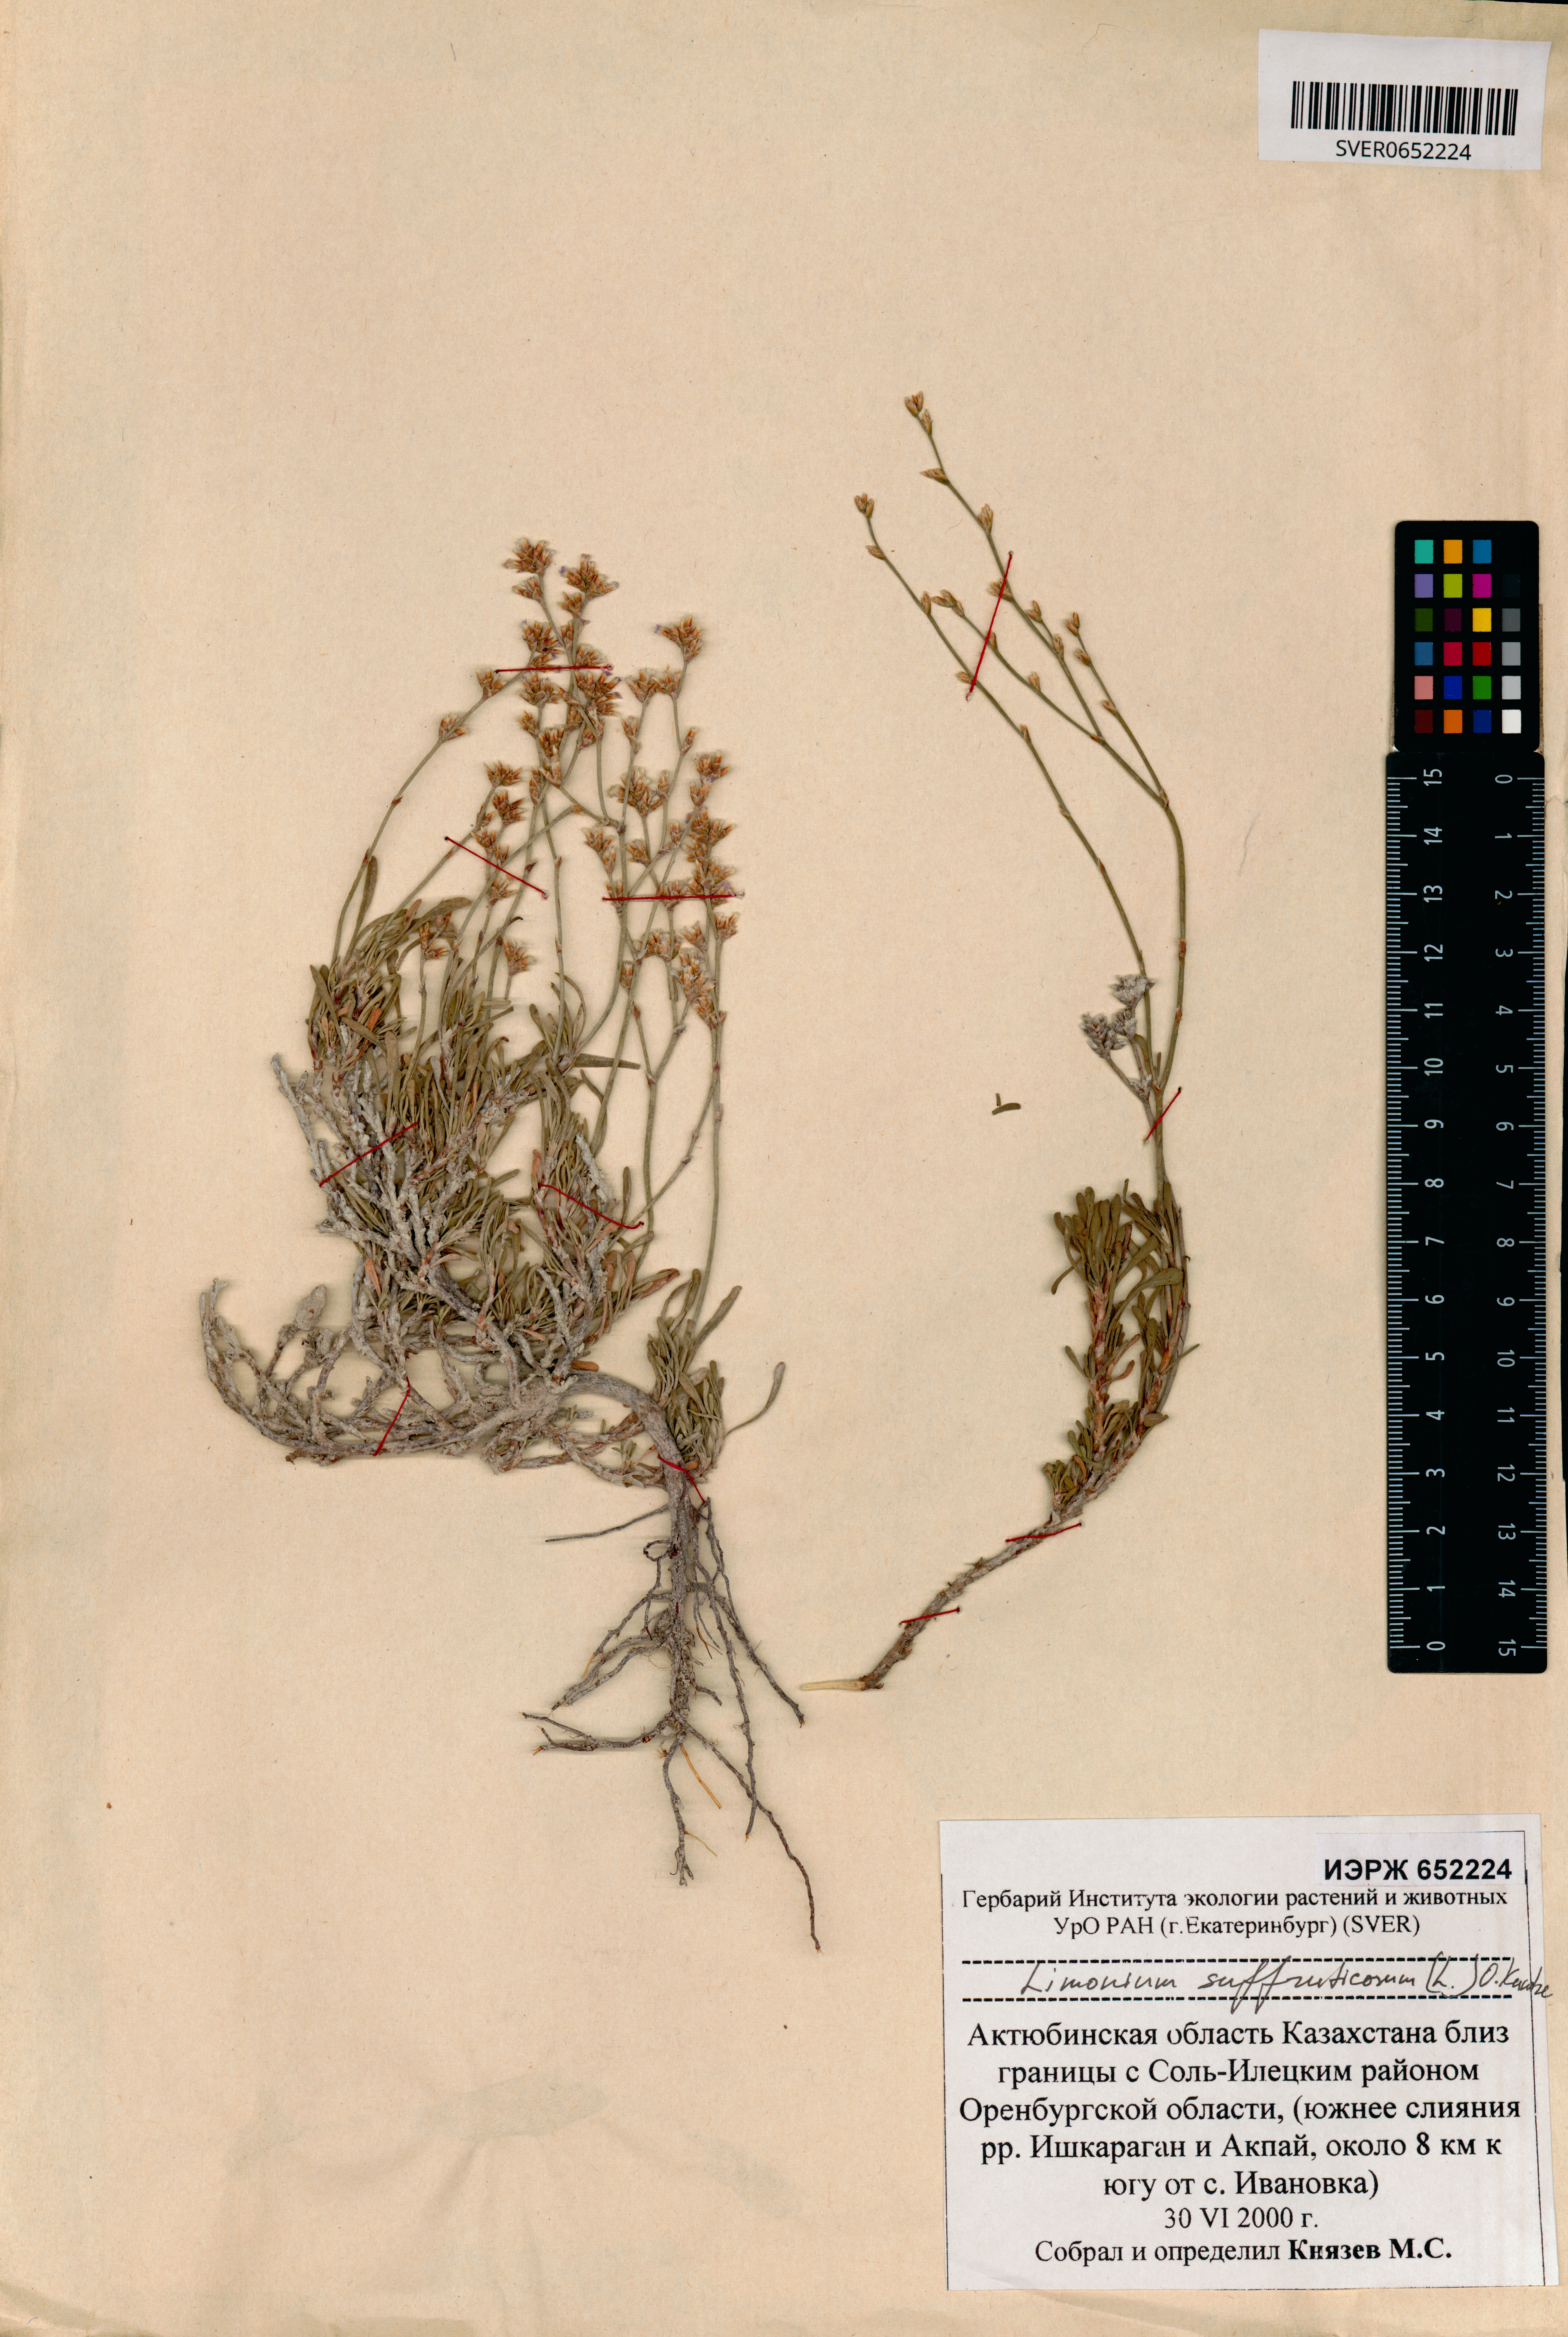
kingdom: Plantae
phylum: Tracheophyta
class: Magnoliopsida
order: Caryophyllales
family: Plumbaginaceae
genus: Limonium
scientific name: Limonium suffruticosum
